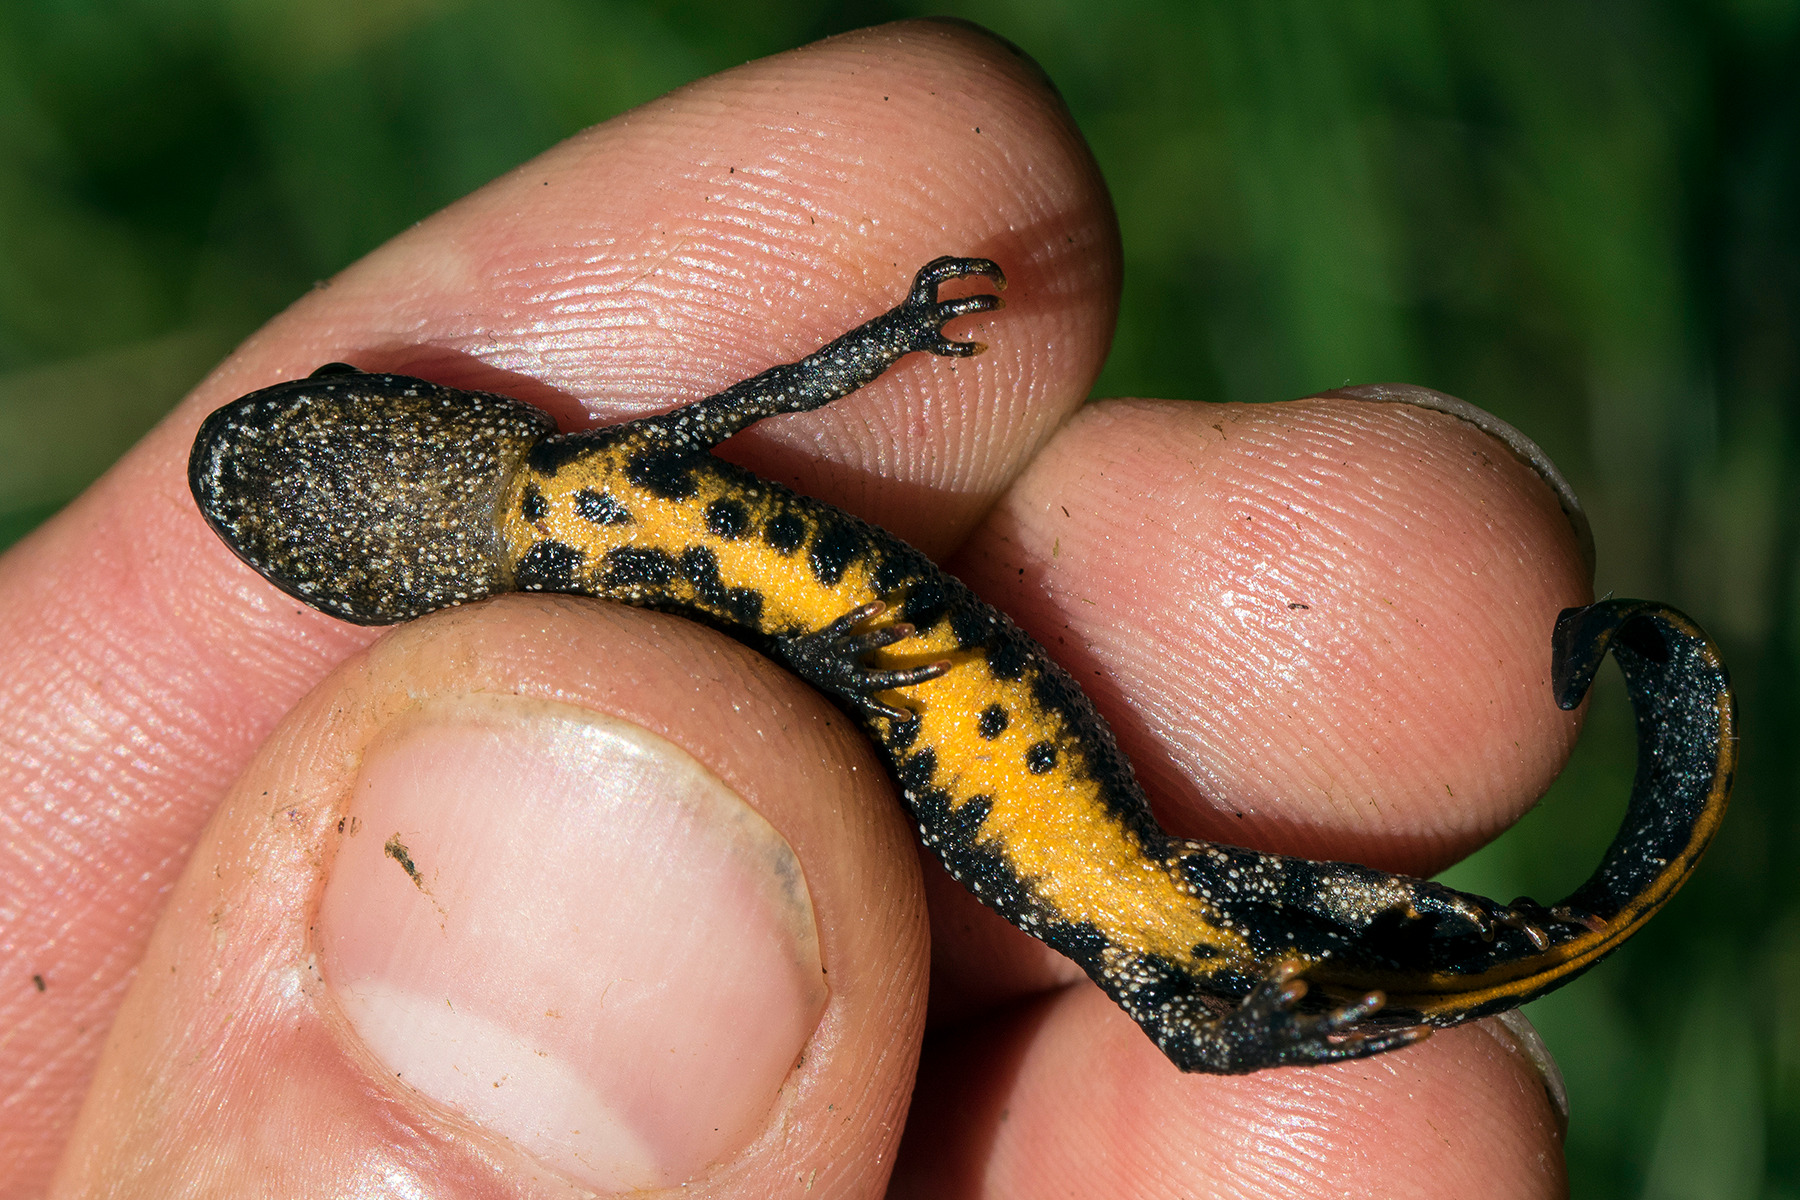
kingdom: Animalia
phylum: Chordata
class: Amphibia
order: Caudata
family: Salamandridae
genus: Triturus
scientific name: Triturus cristatus
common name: Stor vandsalamander
